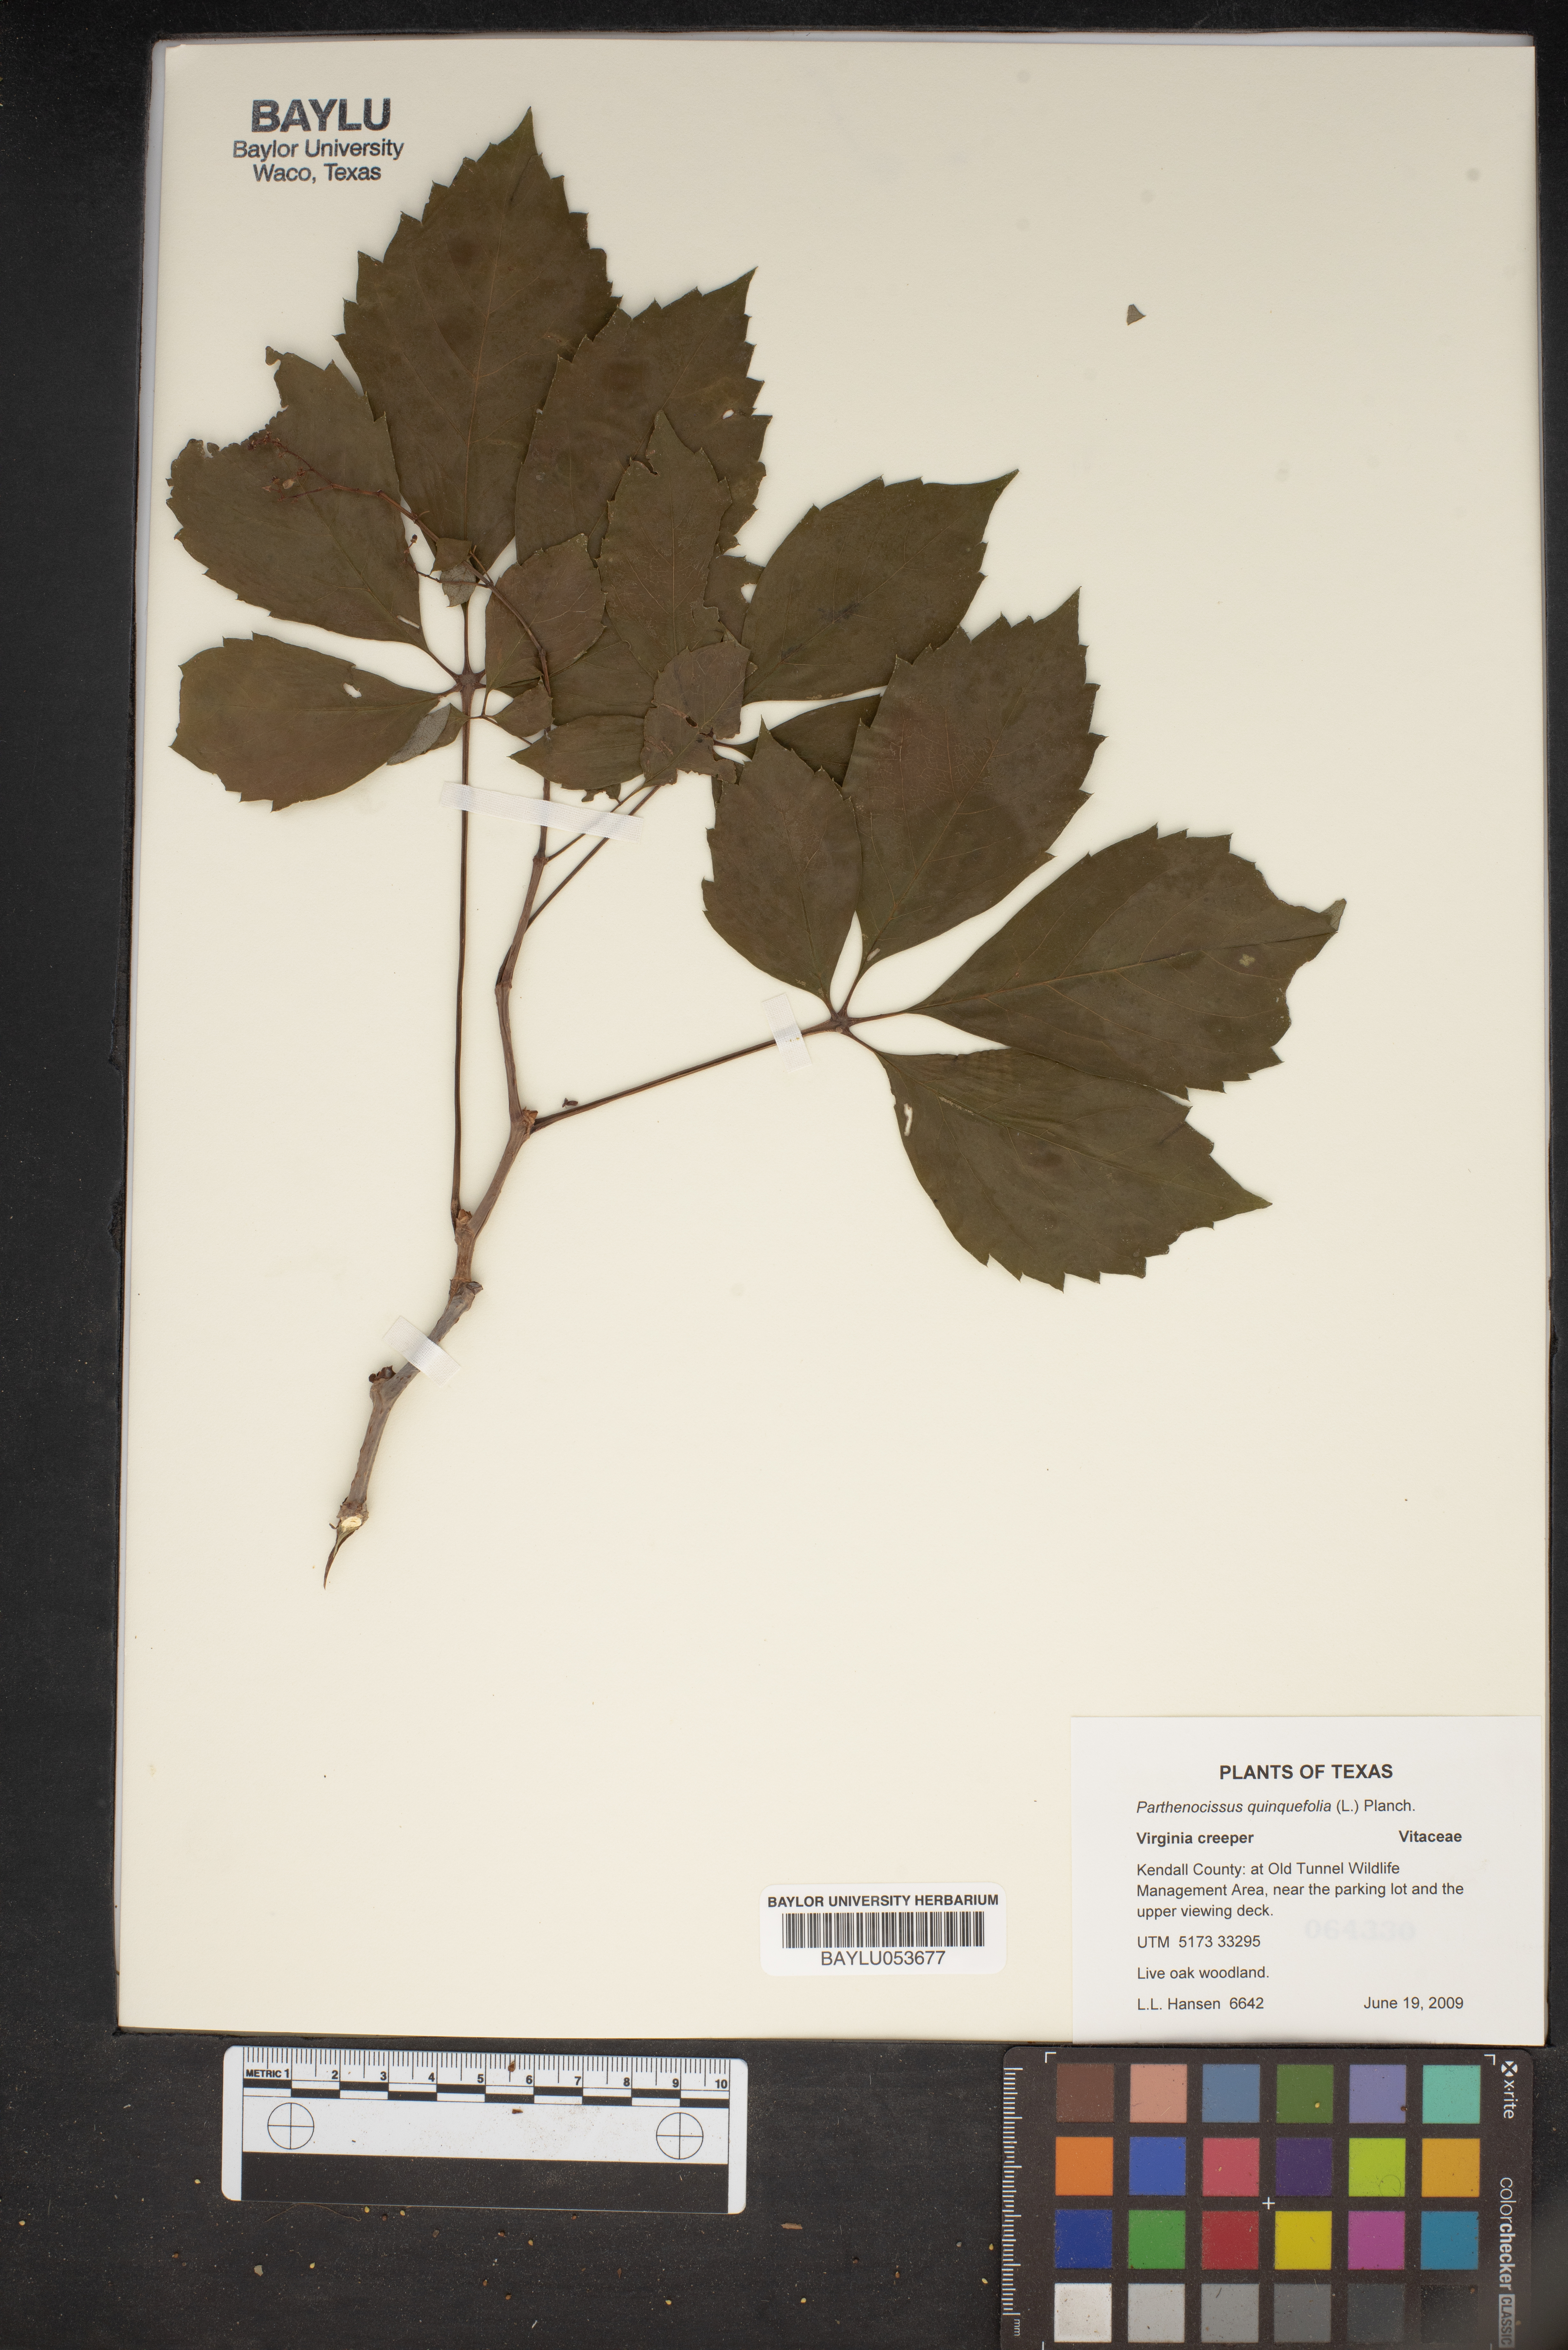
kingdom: Plantae
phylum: Tracheophyta
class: Magnoliopsida
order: Vitales
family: Vitaceae
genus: Parthenocissus
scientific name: Parthenocissus quinquefolia
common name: Virginia-creeper
